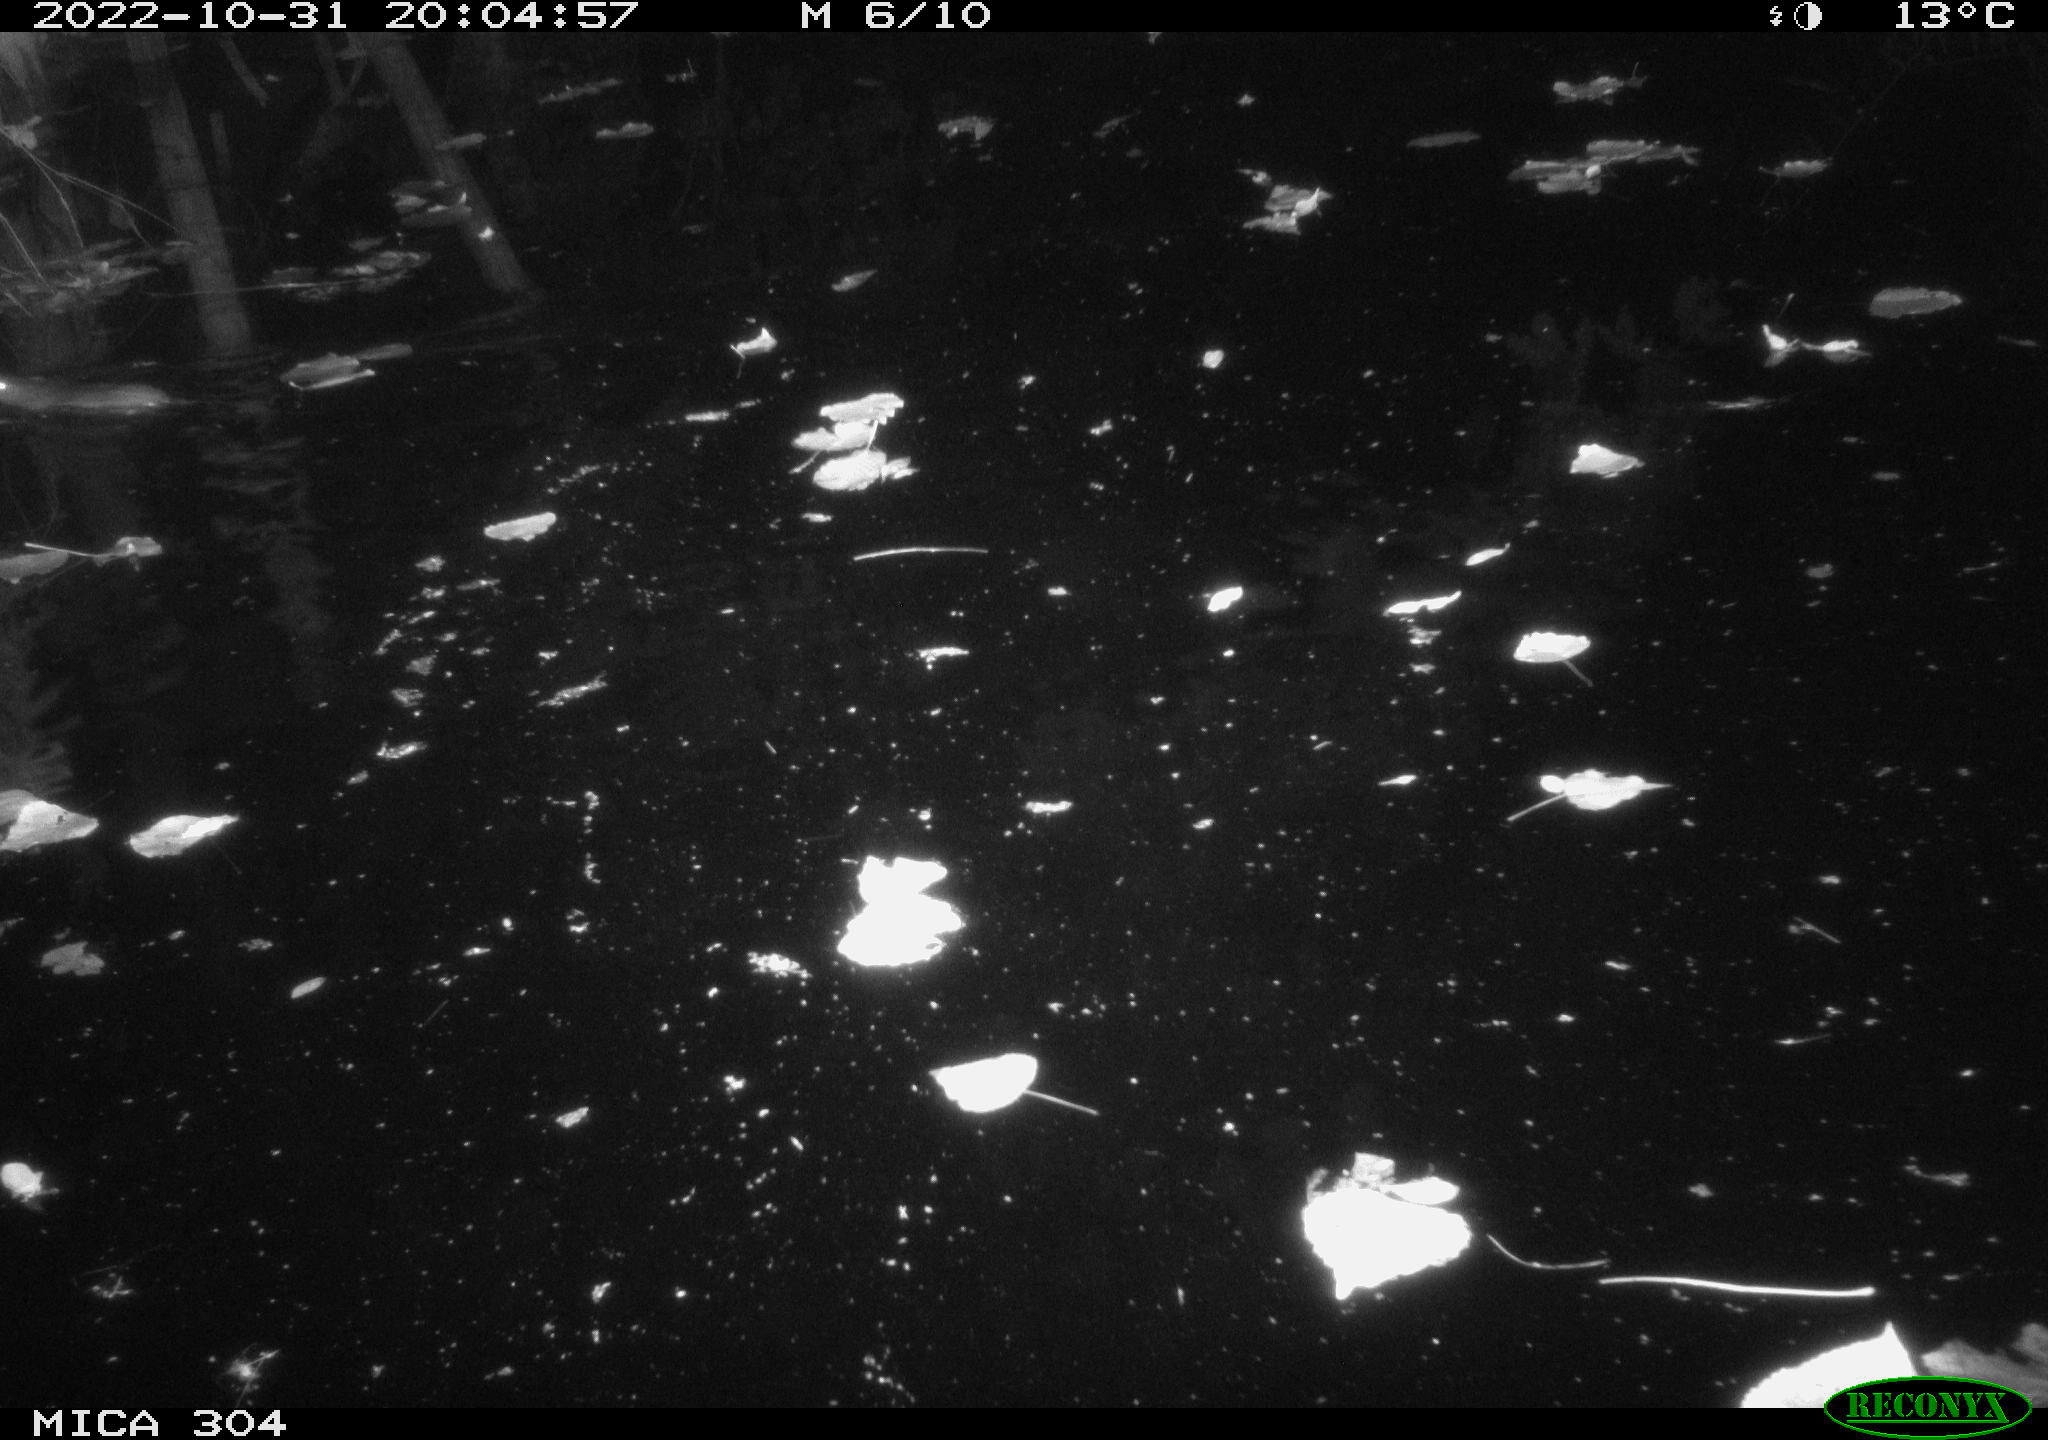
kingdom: Animalia
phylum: Chordata
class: Mammalia
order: Rodentia
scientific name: Rodentia
